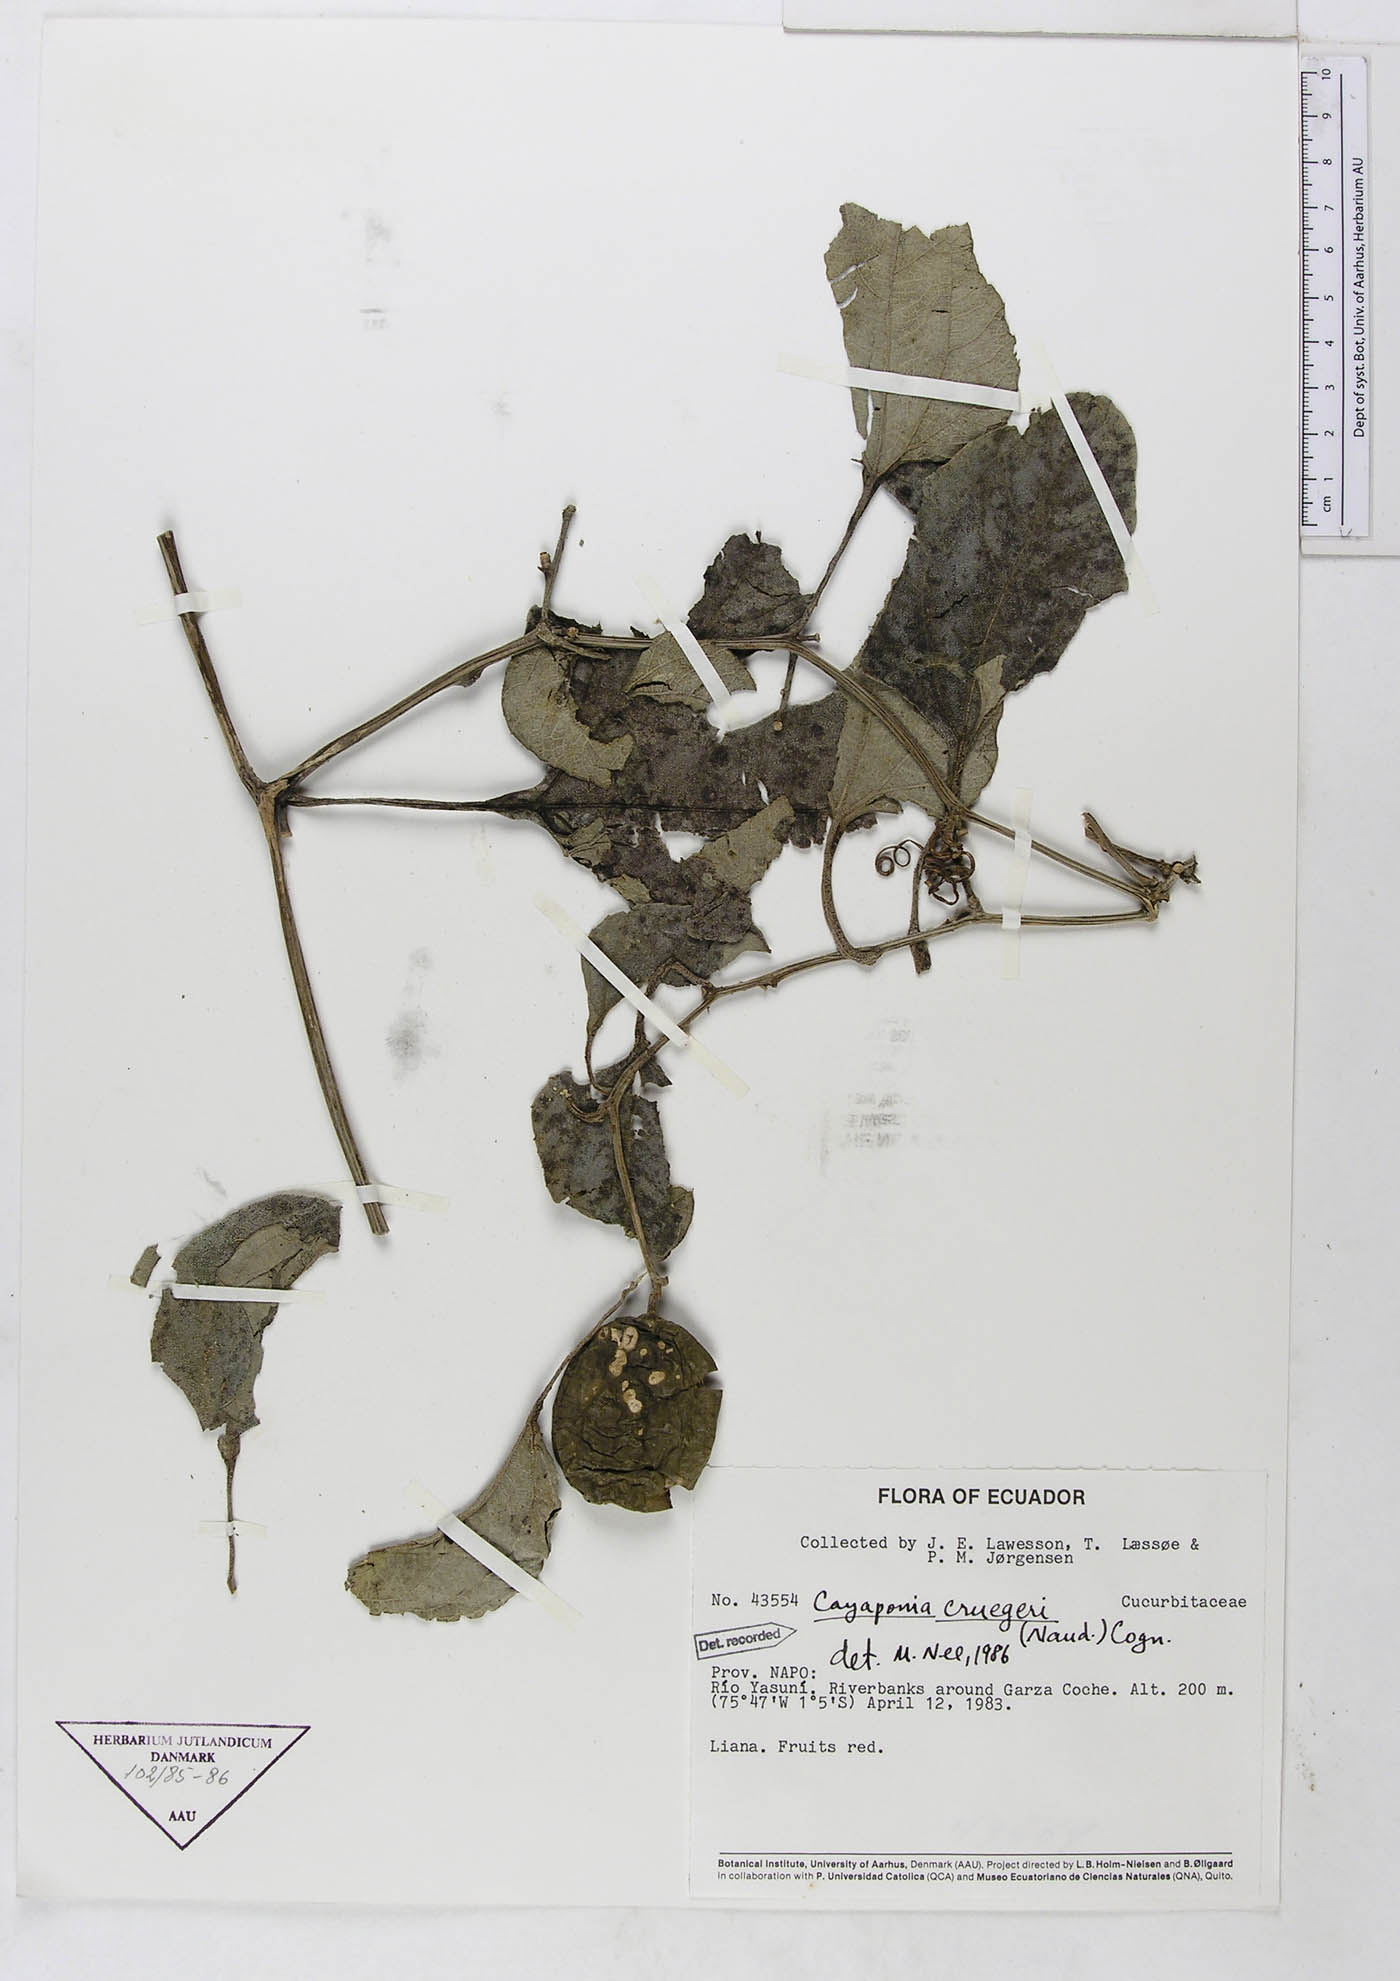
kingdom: Plantae
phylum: Tracheophyta
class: Magnoliopsida
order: Cucurbitales
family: Cucurbitaceae
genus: Cayaponia
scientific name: Cayaponia cruegeri
